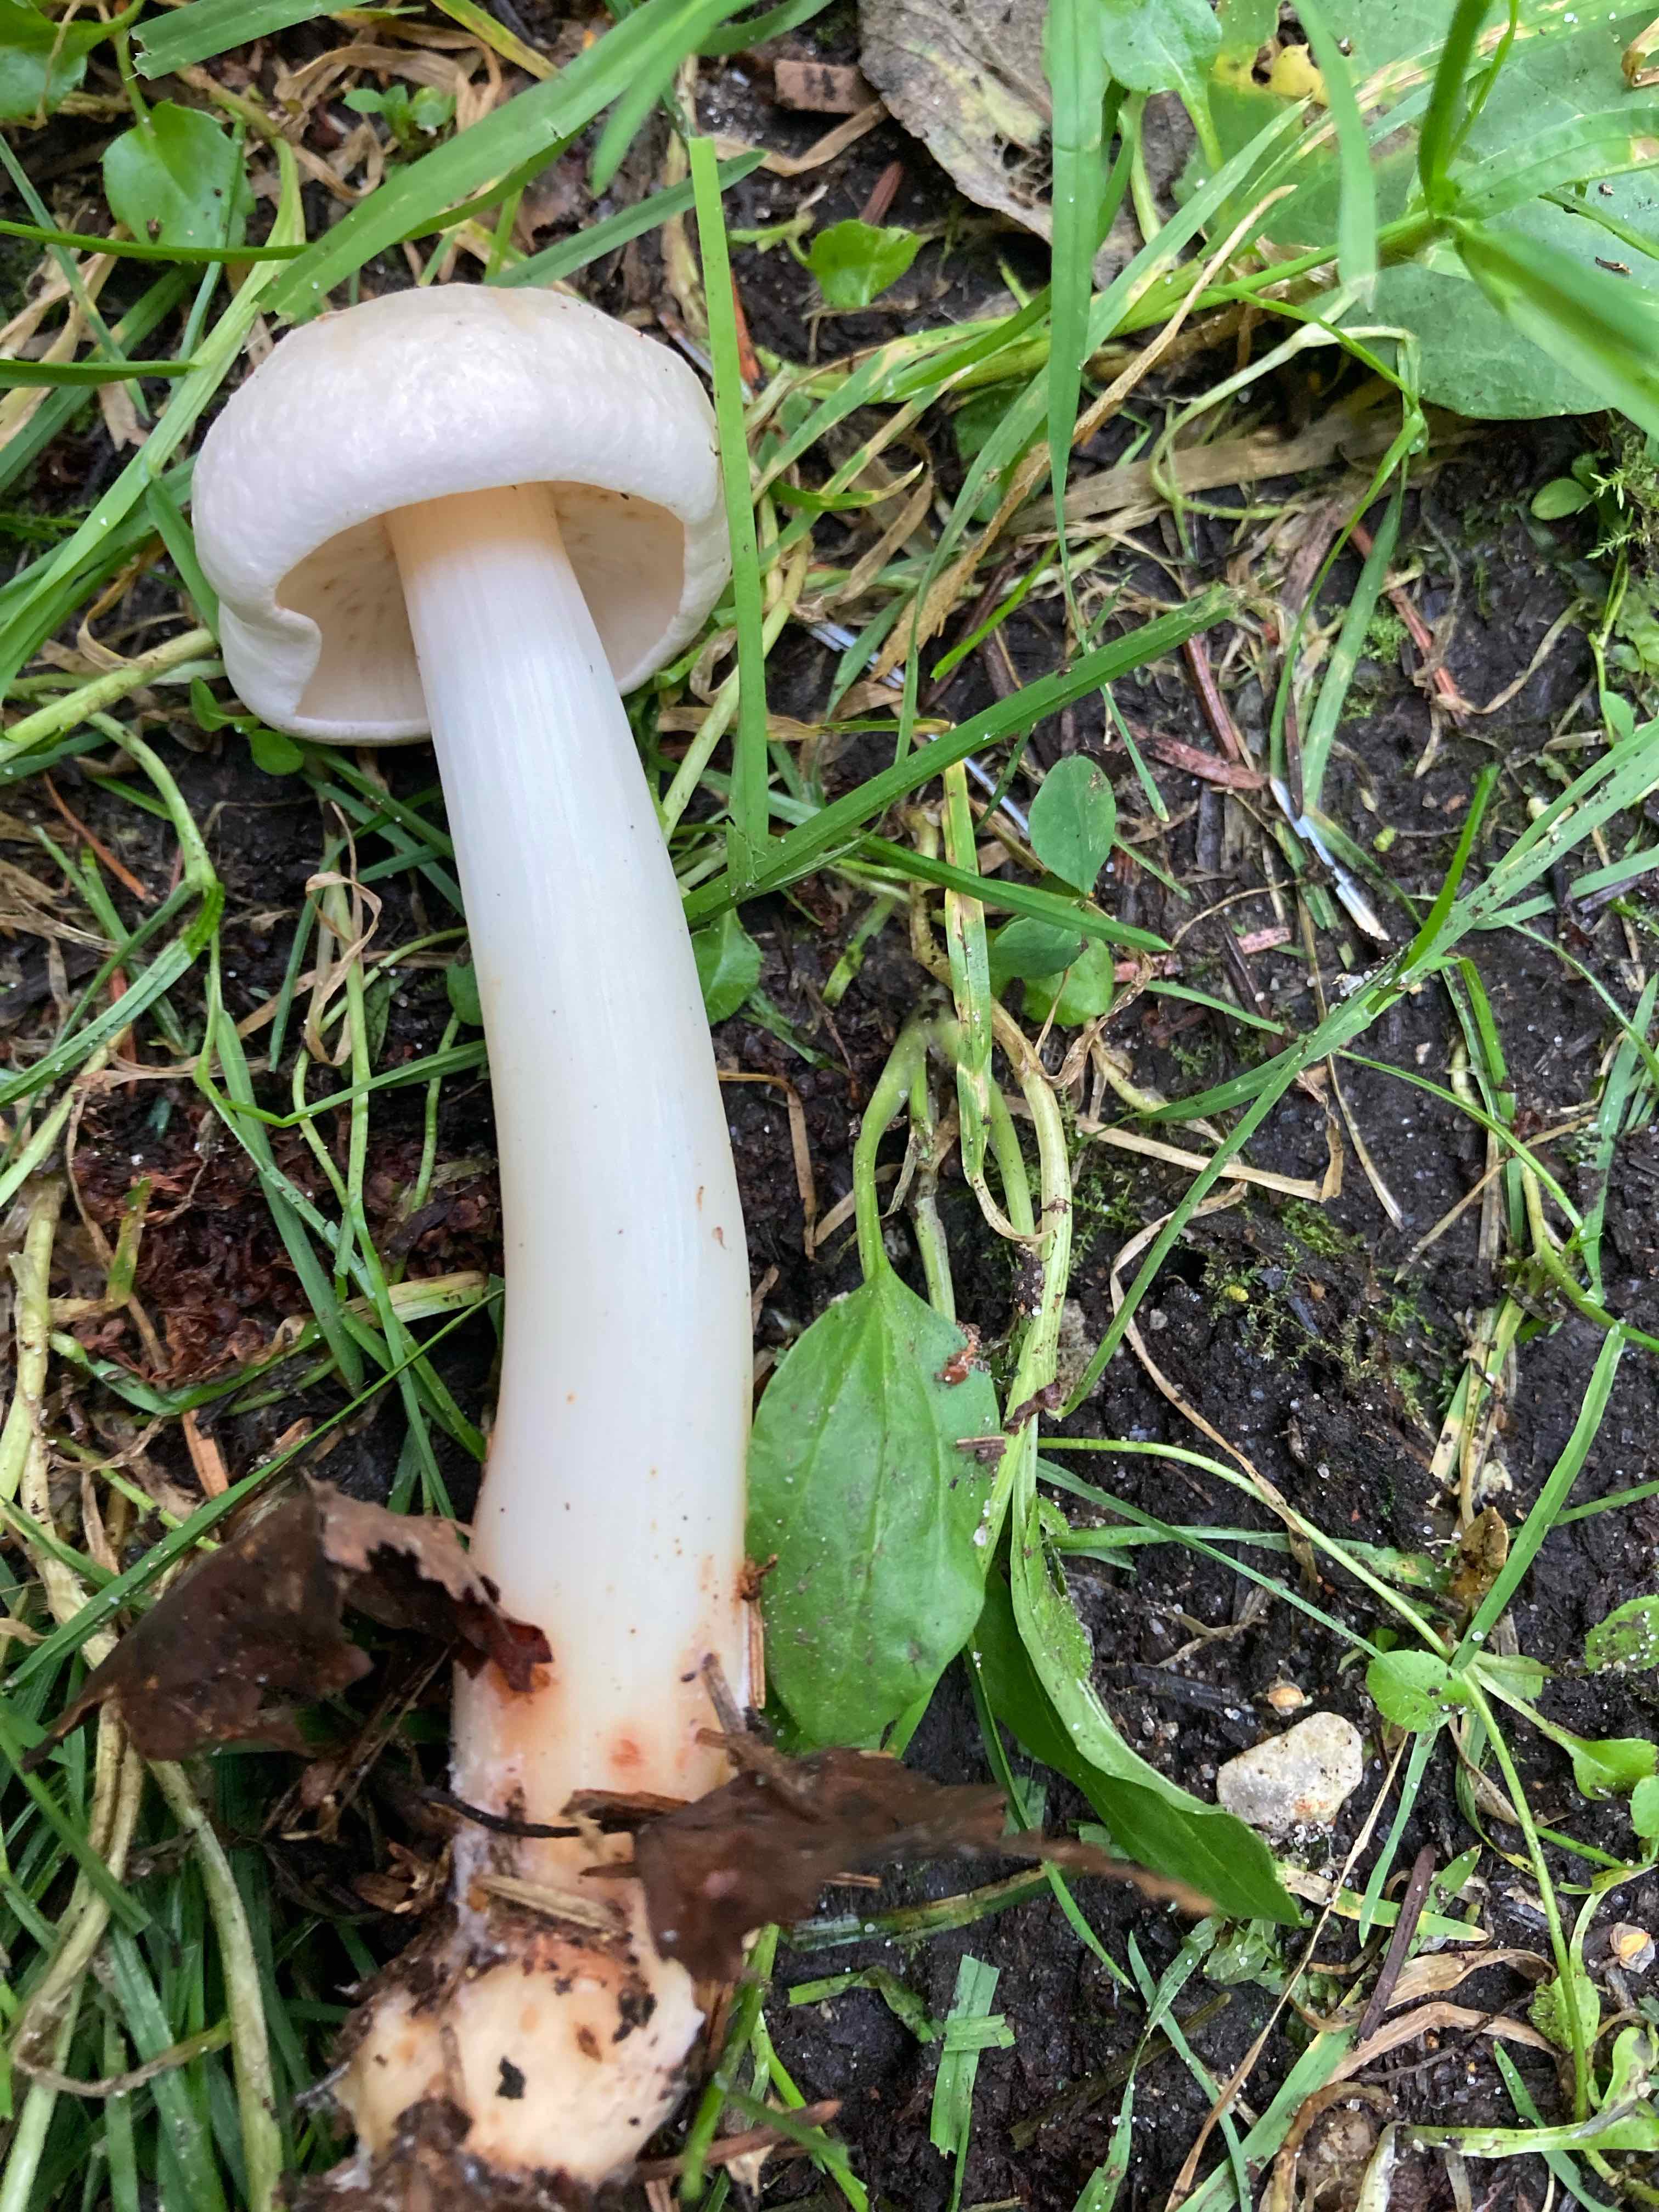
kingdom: Fungi
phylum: Basidiomycota
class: Agaricomycetes
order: Agaricales
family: Omphalotaceae
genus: Rhodocollybia
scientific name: Rhodocollybia maculata
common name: plettet fladhat
